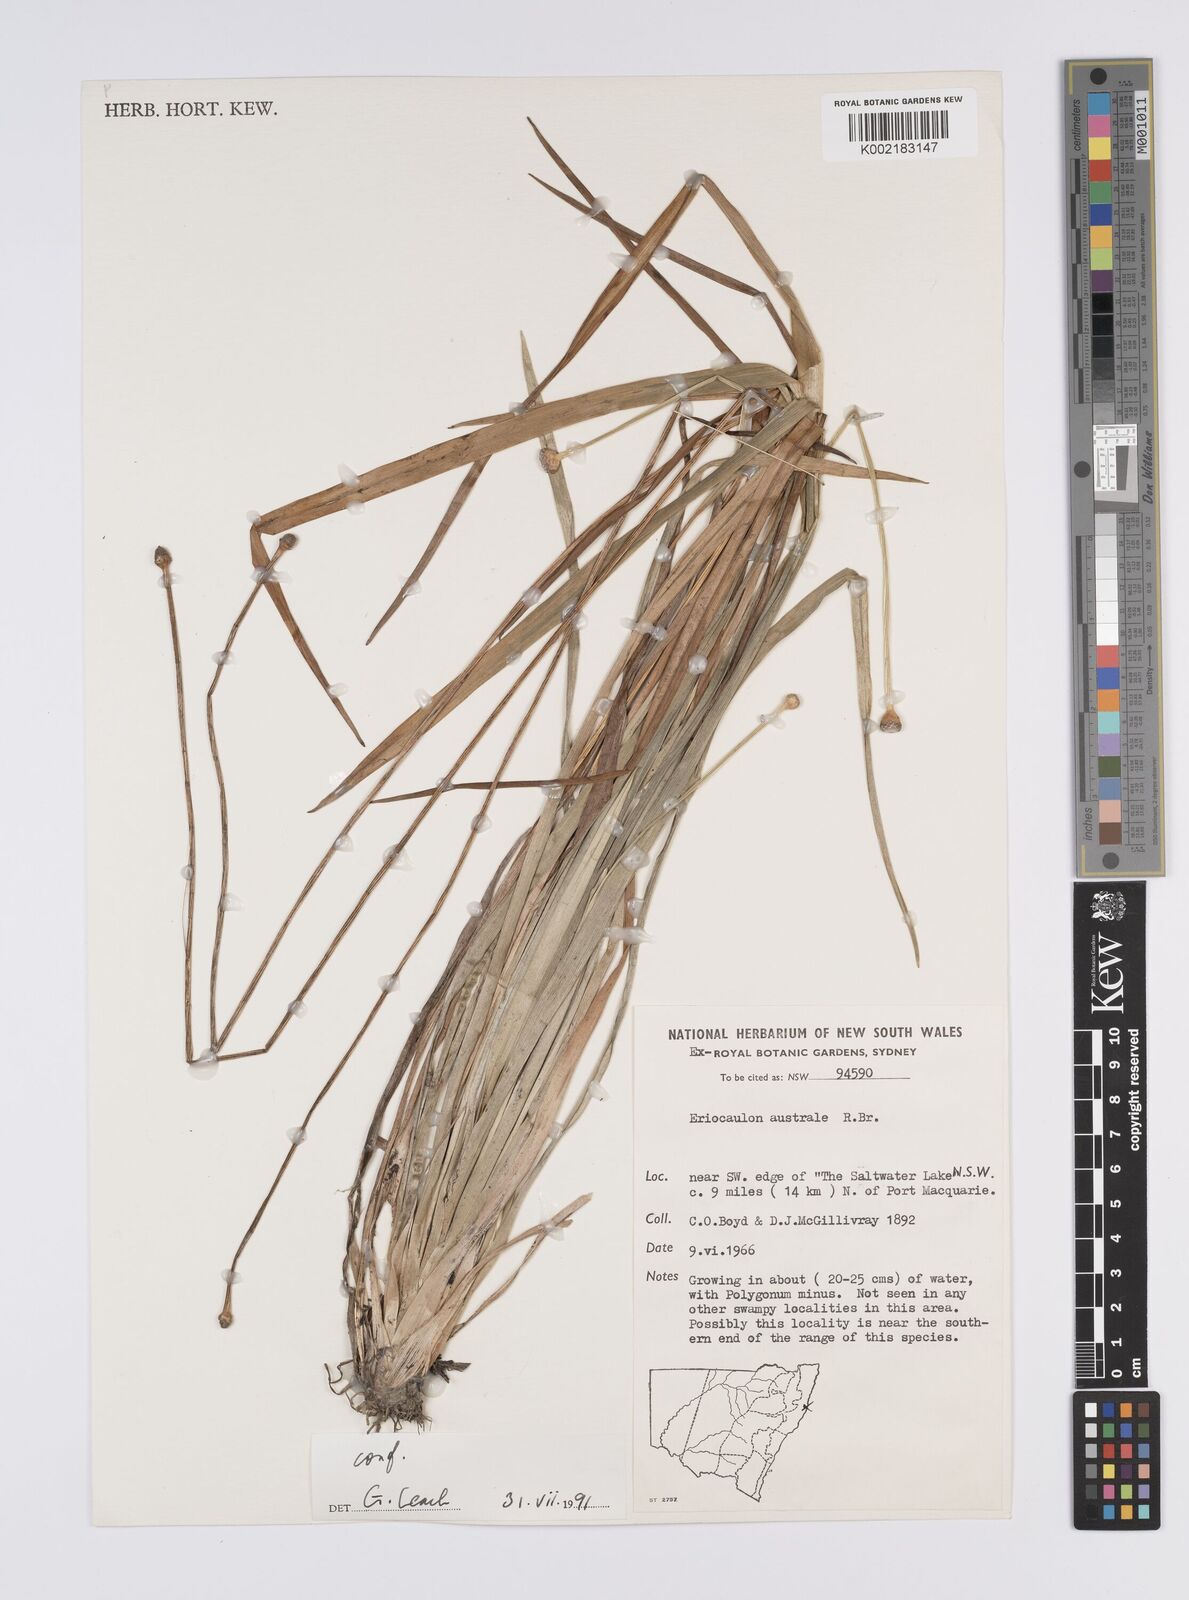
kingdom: Plantae
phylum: Tracheophyta
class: Liliopsida
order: Poales
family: Eriocaulaceae
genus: Eriocaulon
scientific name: Eriocaulon australe
